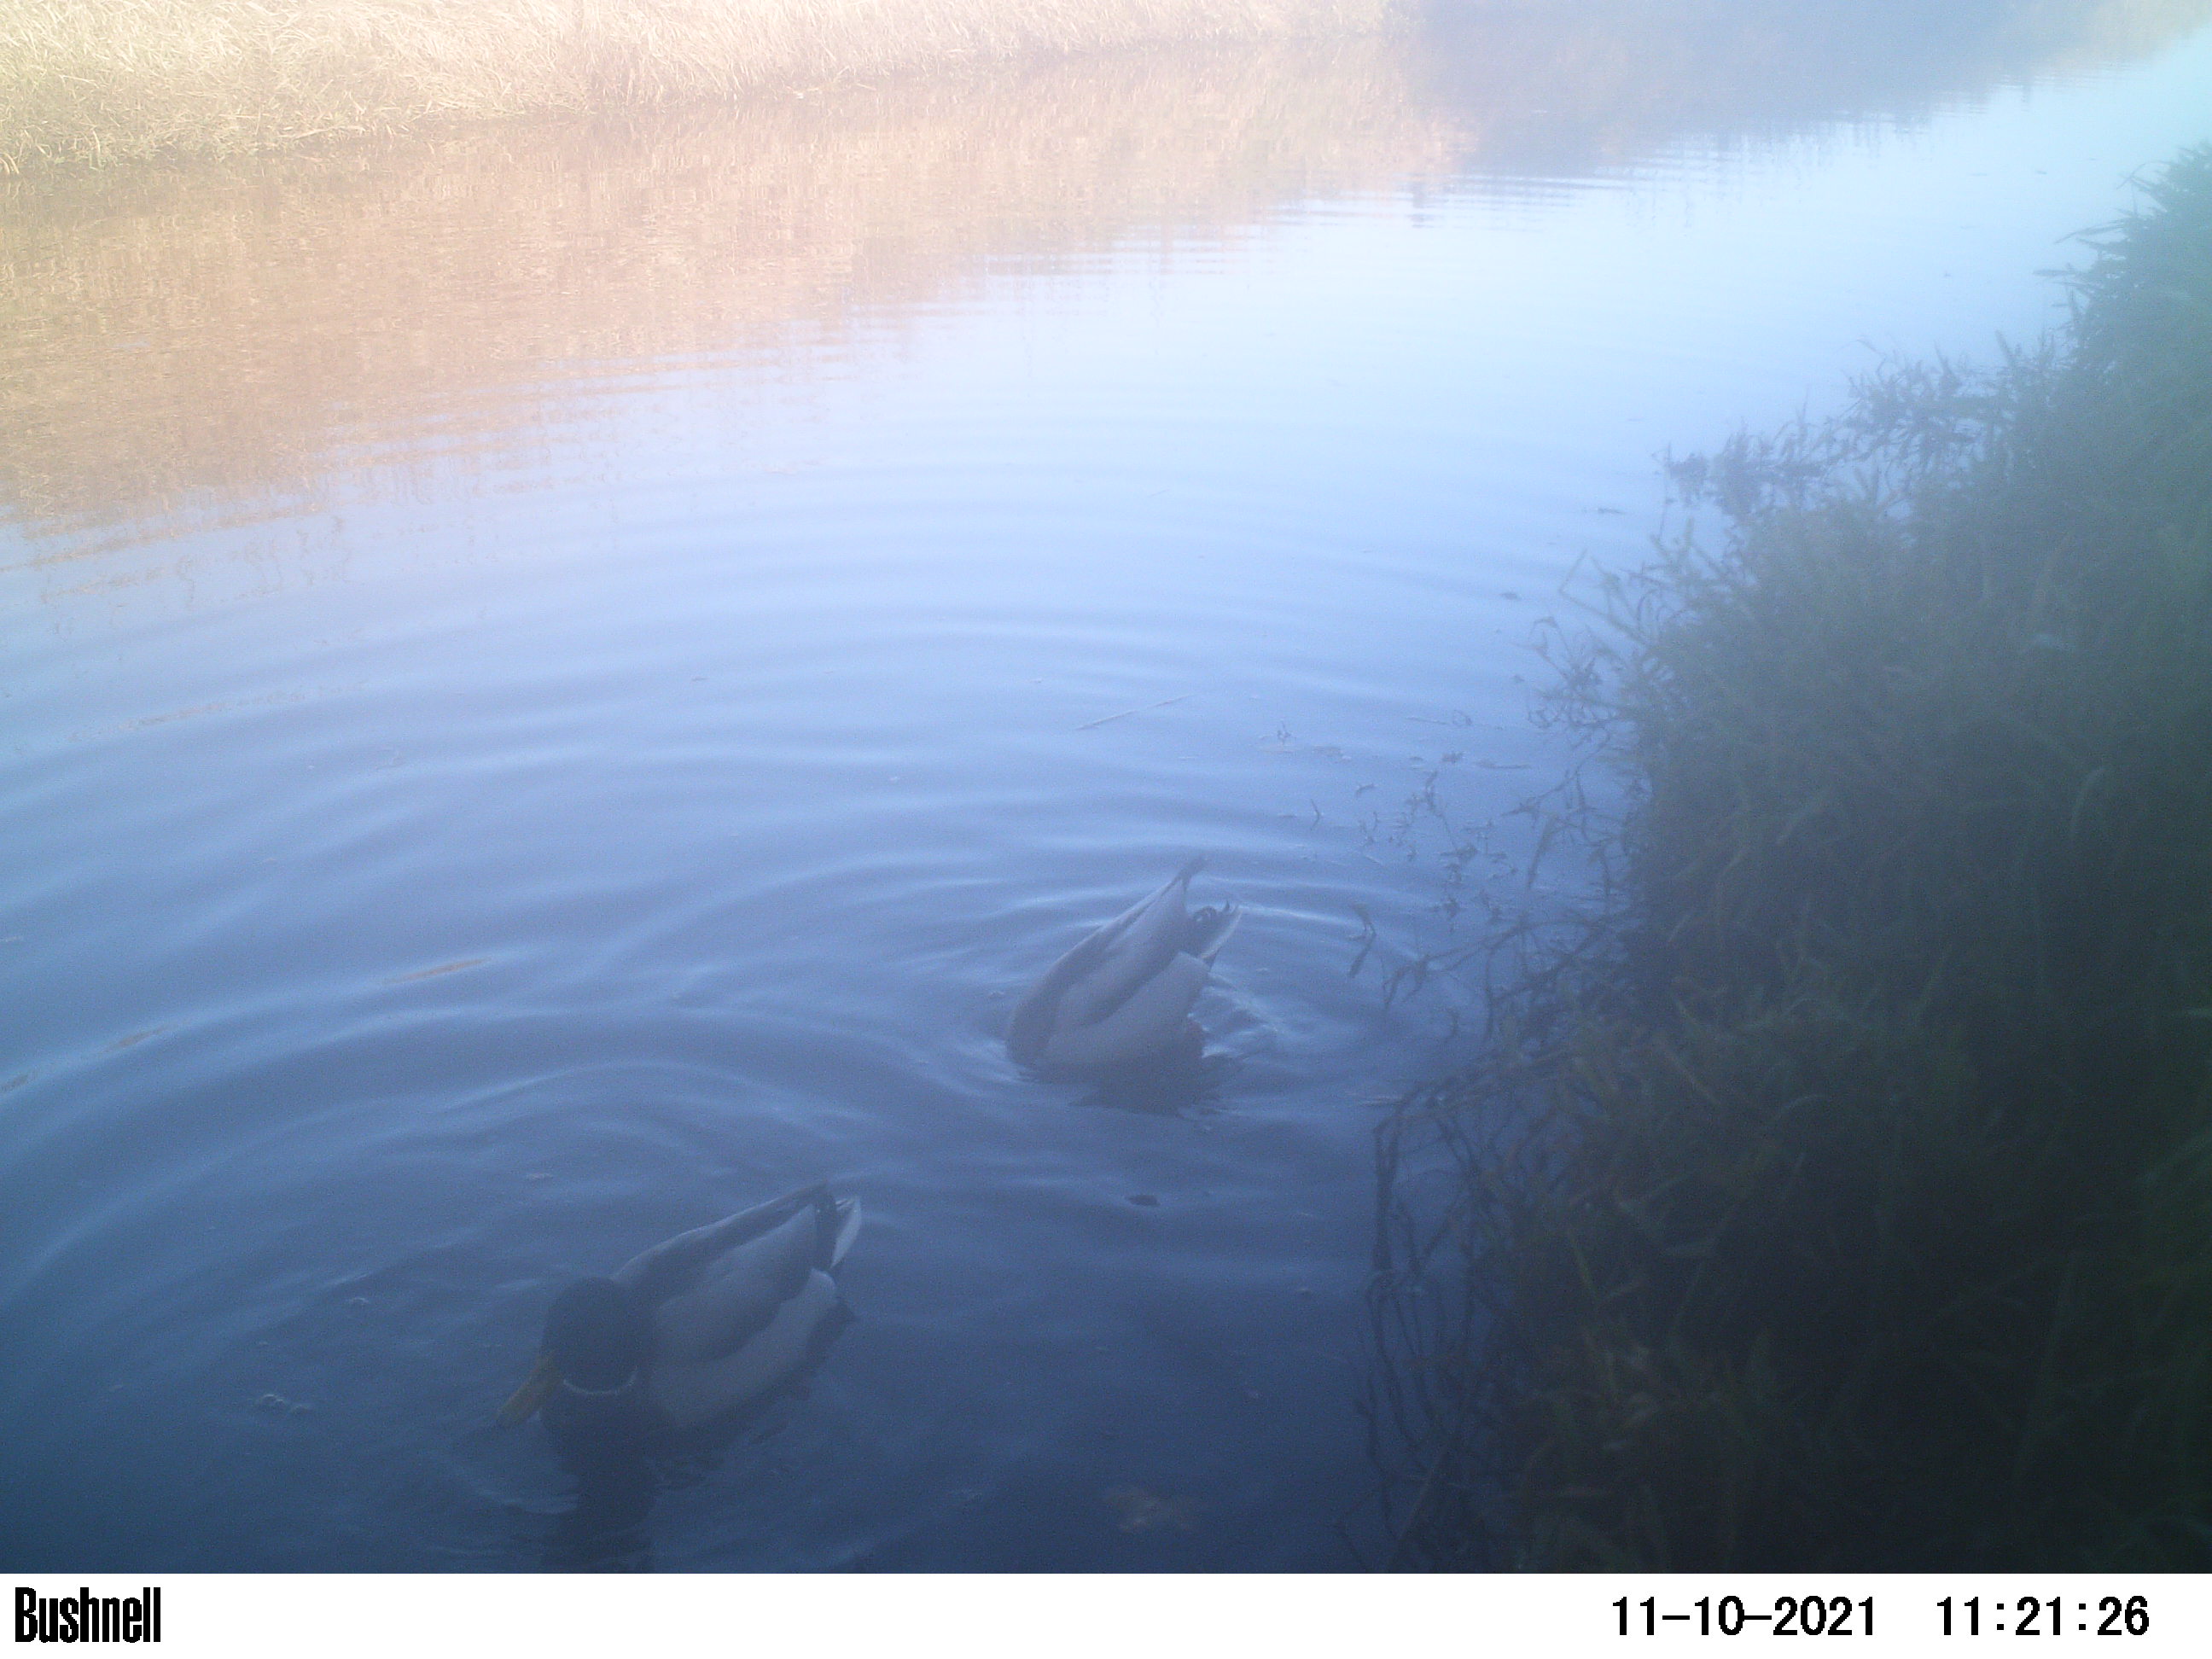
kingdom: Animalia
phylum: Chordata
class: Aves
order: Anseriformes
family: Anatidae
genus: Anas
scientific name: Anas
